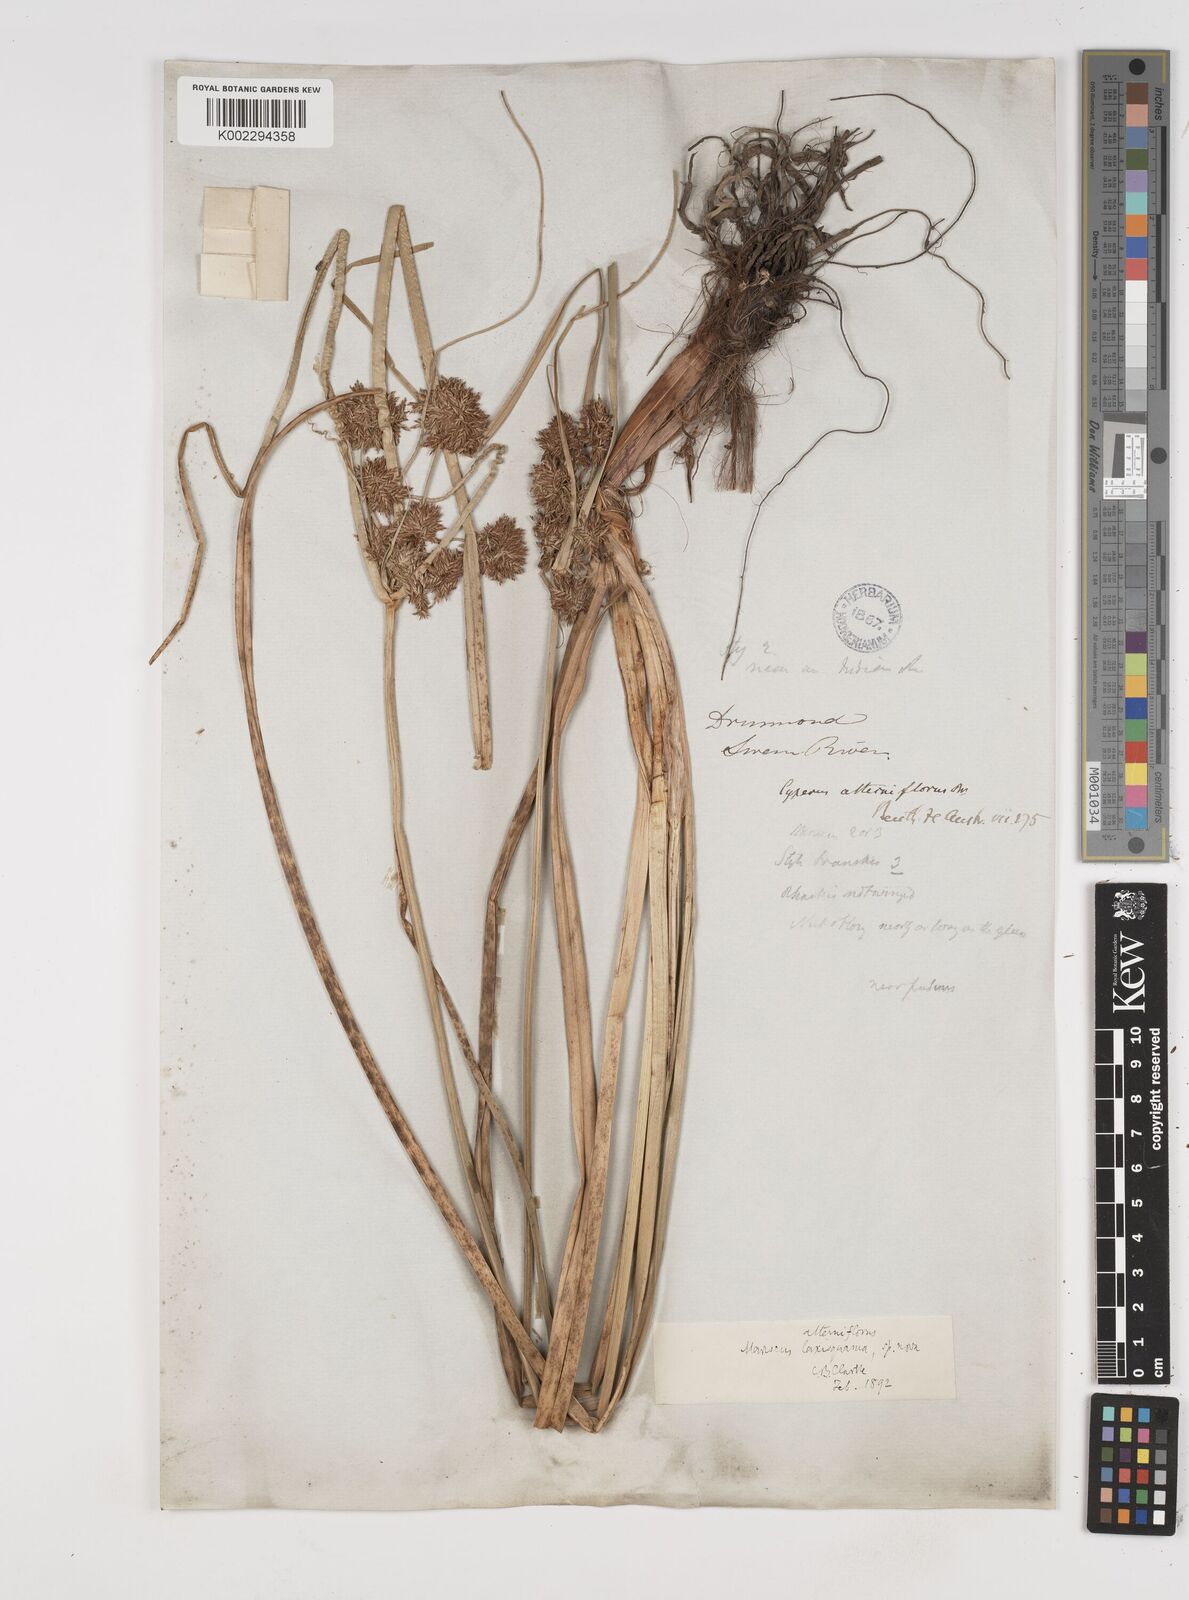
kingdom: Plantae
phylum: Tracheophyta
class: Liliopsida
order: Poales
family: Cyperaceae
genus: Cyperus
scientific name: Cyperus alterniflorus
